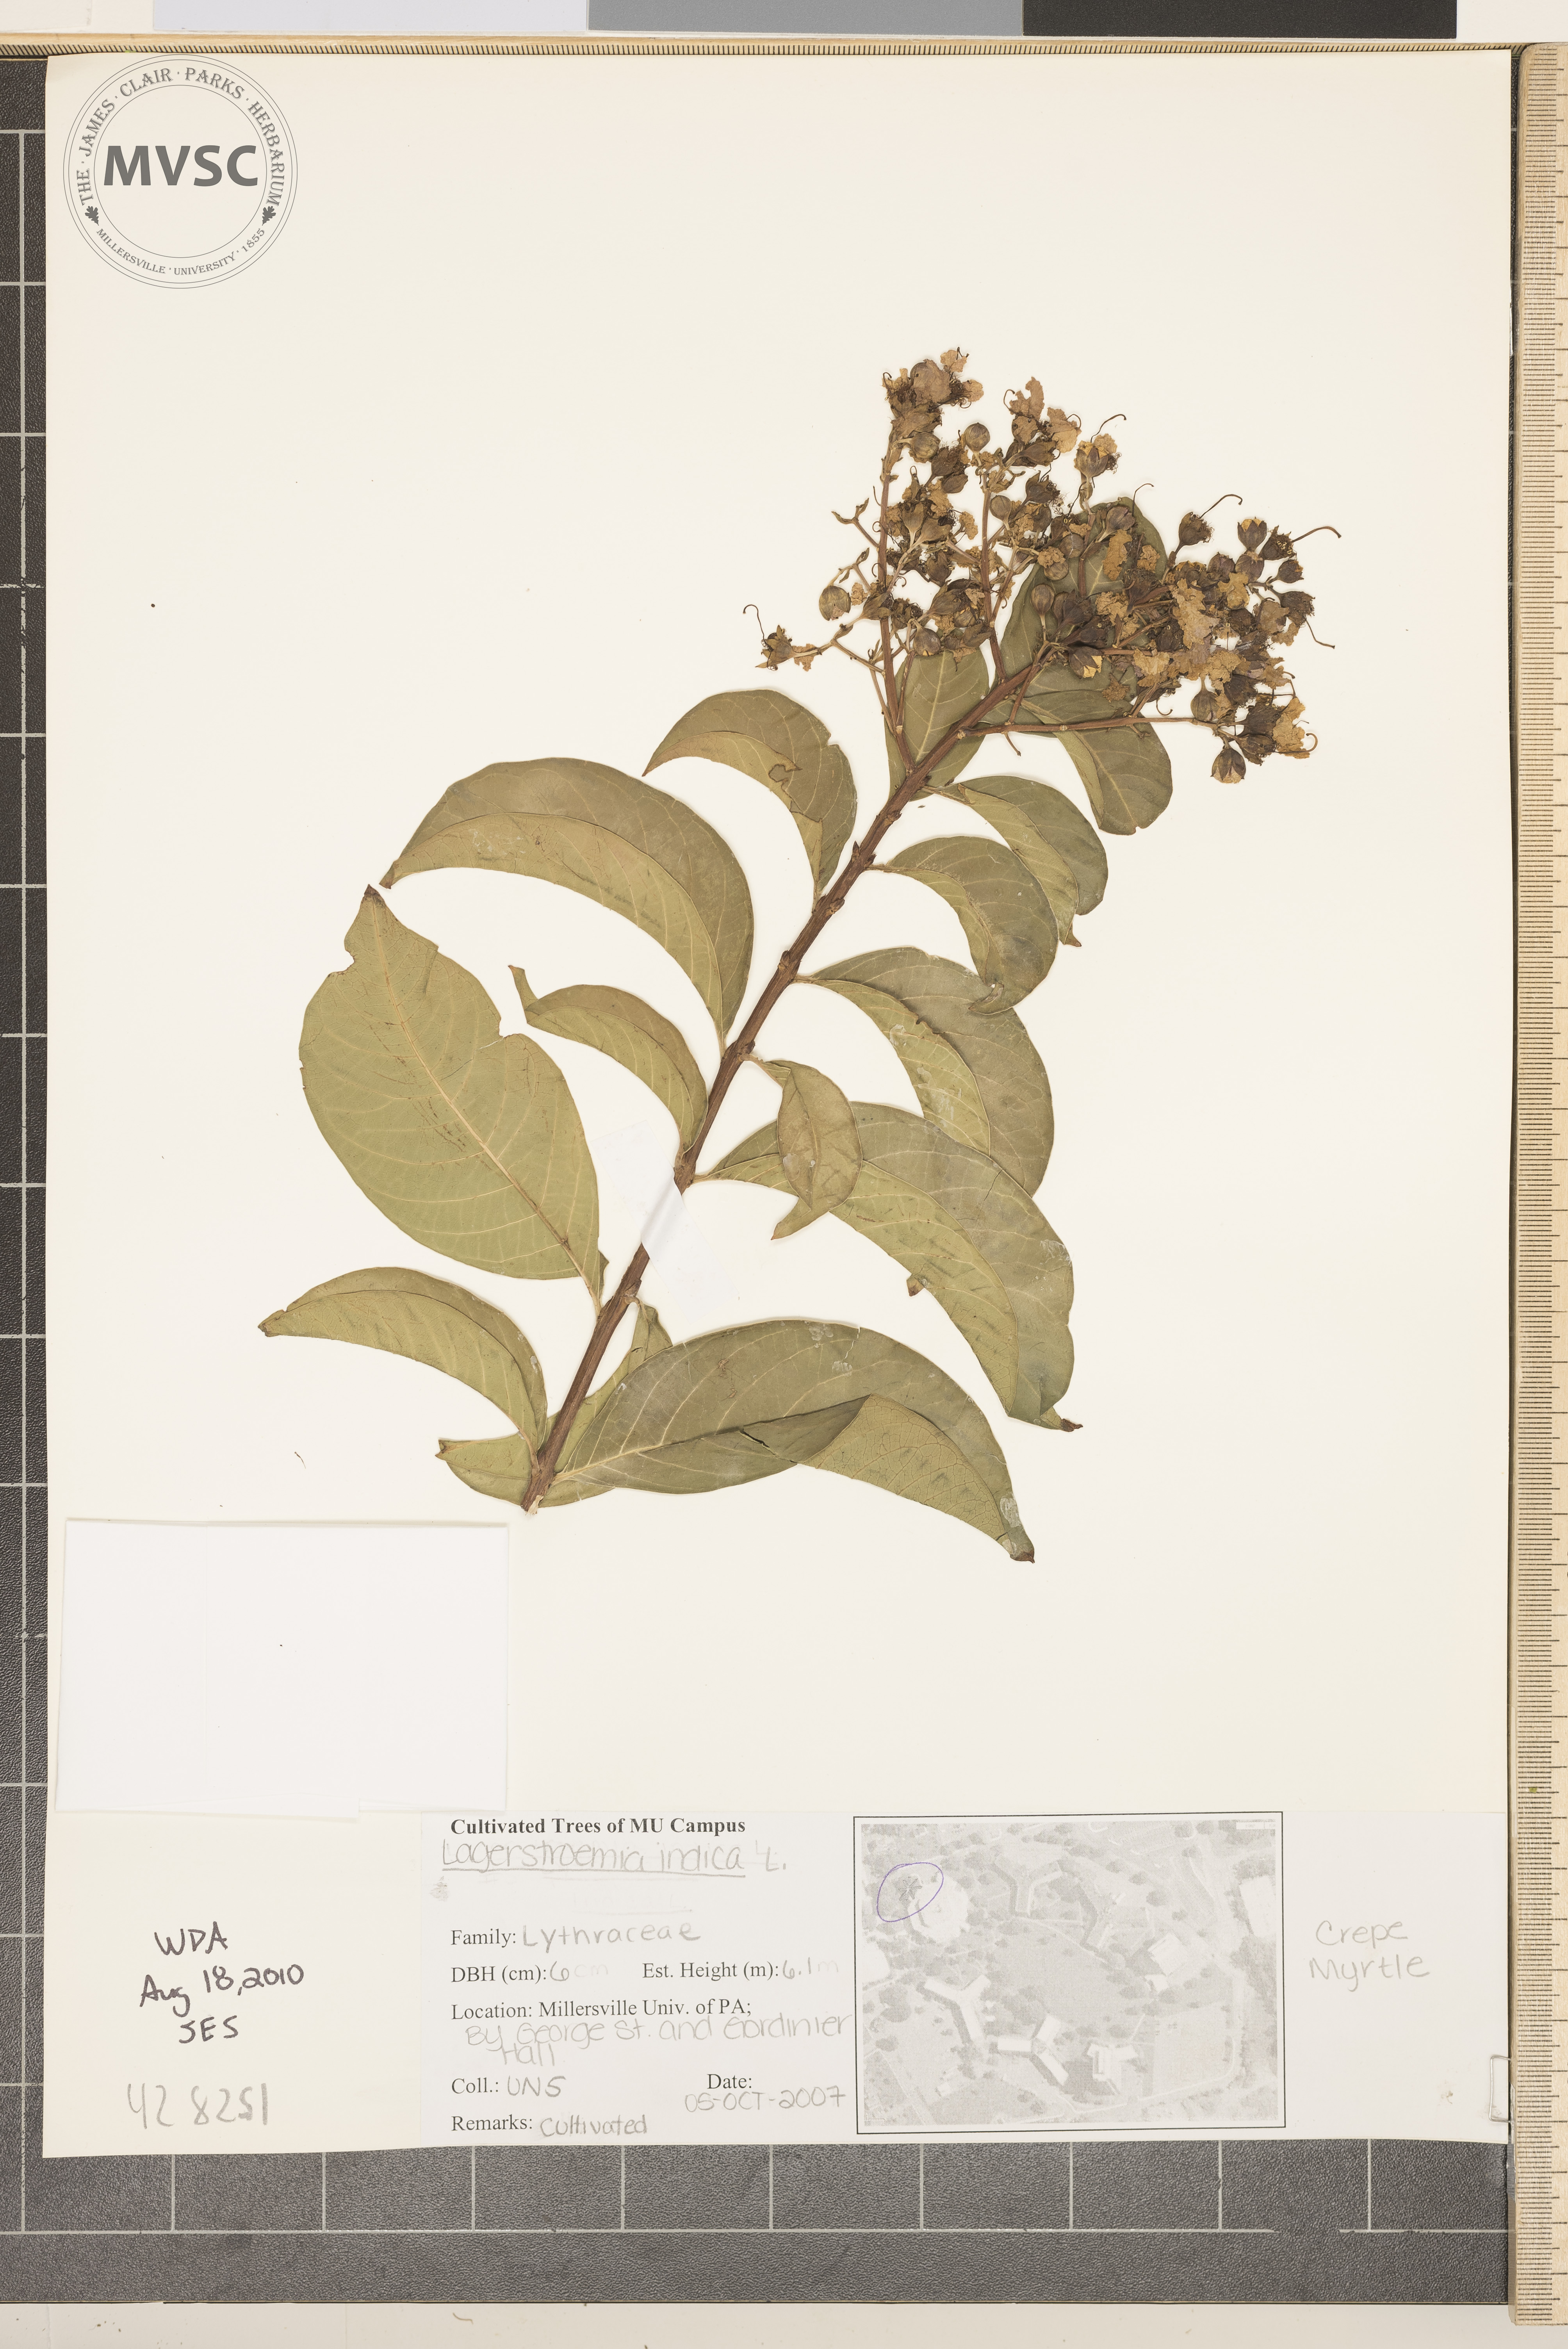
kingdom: Plantae
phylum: Tracheophyta
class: Magnoliopsida
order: Myrtales
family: Lythraceae
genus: Lagerstroemia
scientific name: Lagerstroemia indica
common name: Crapemyrtle
